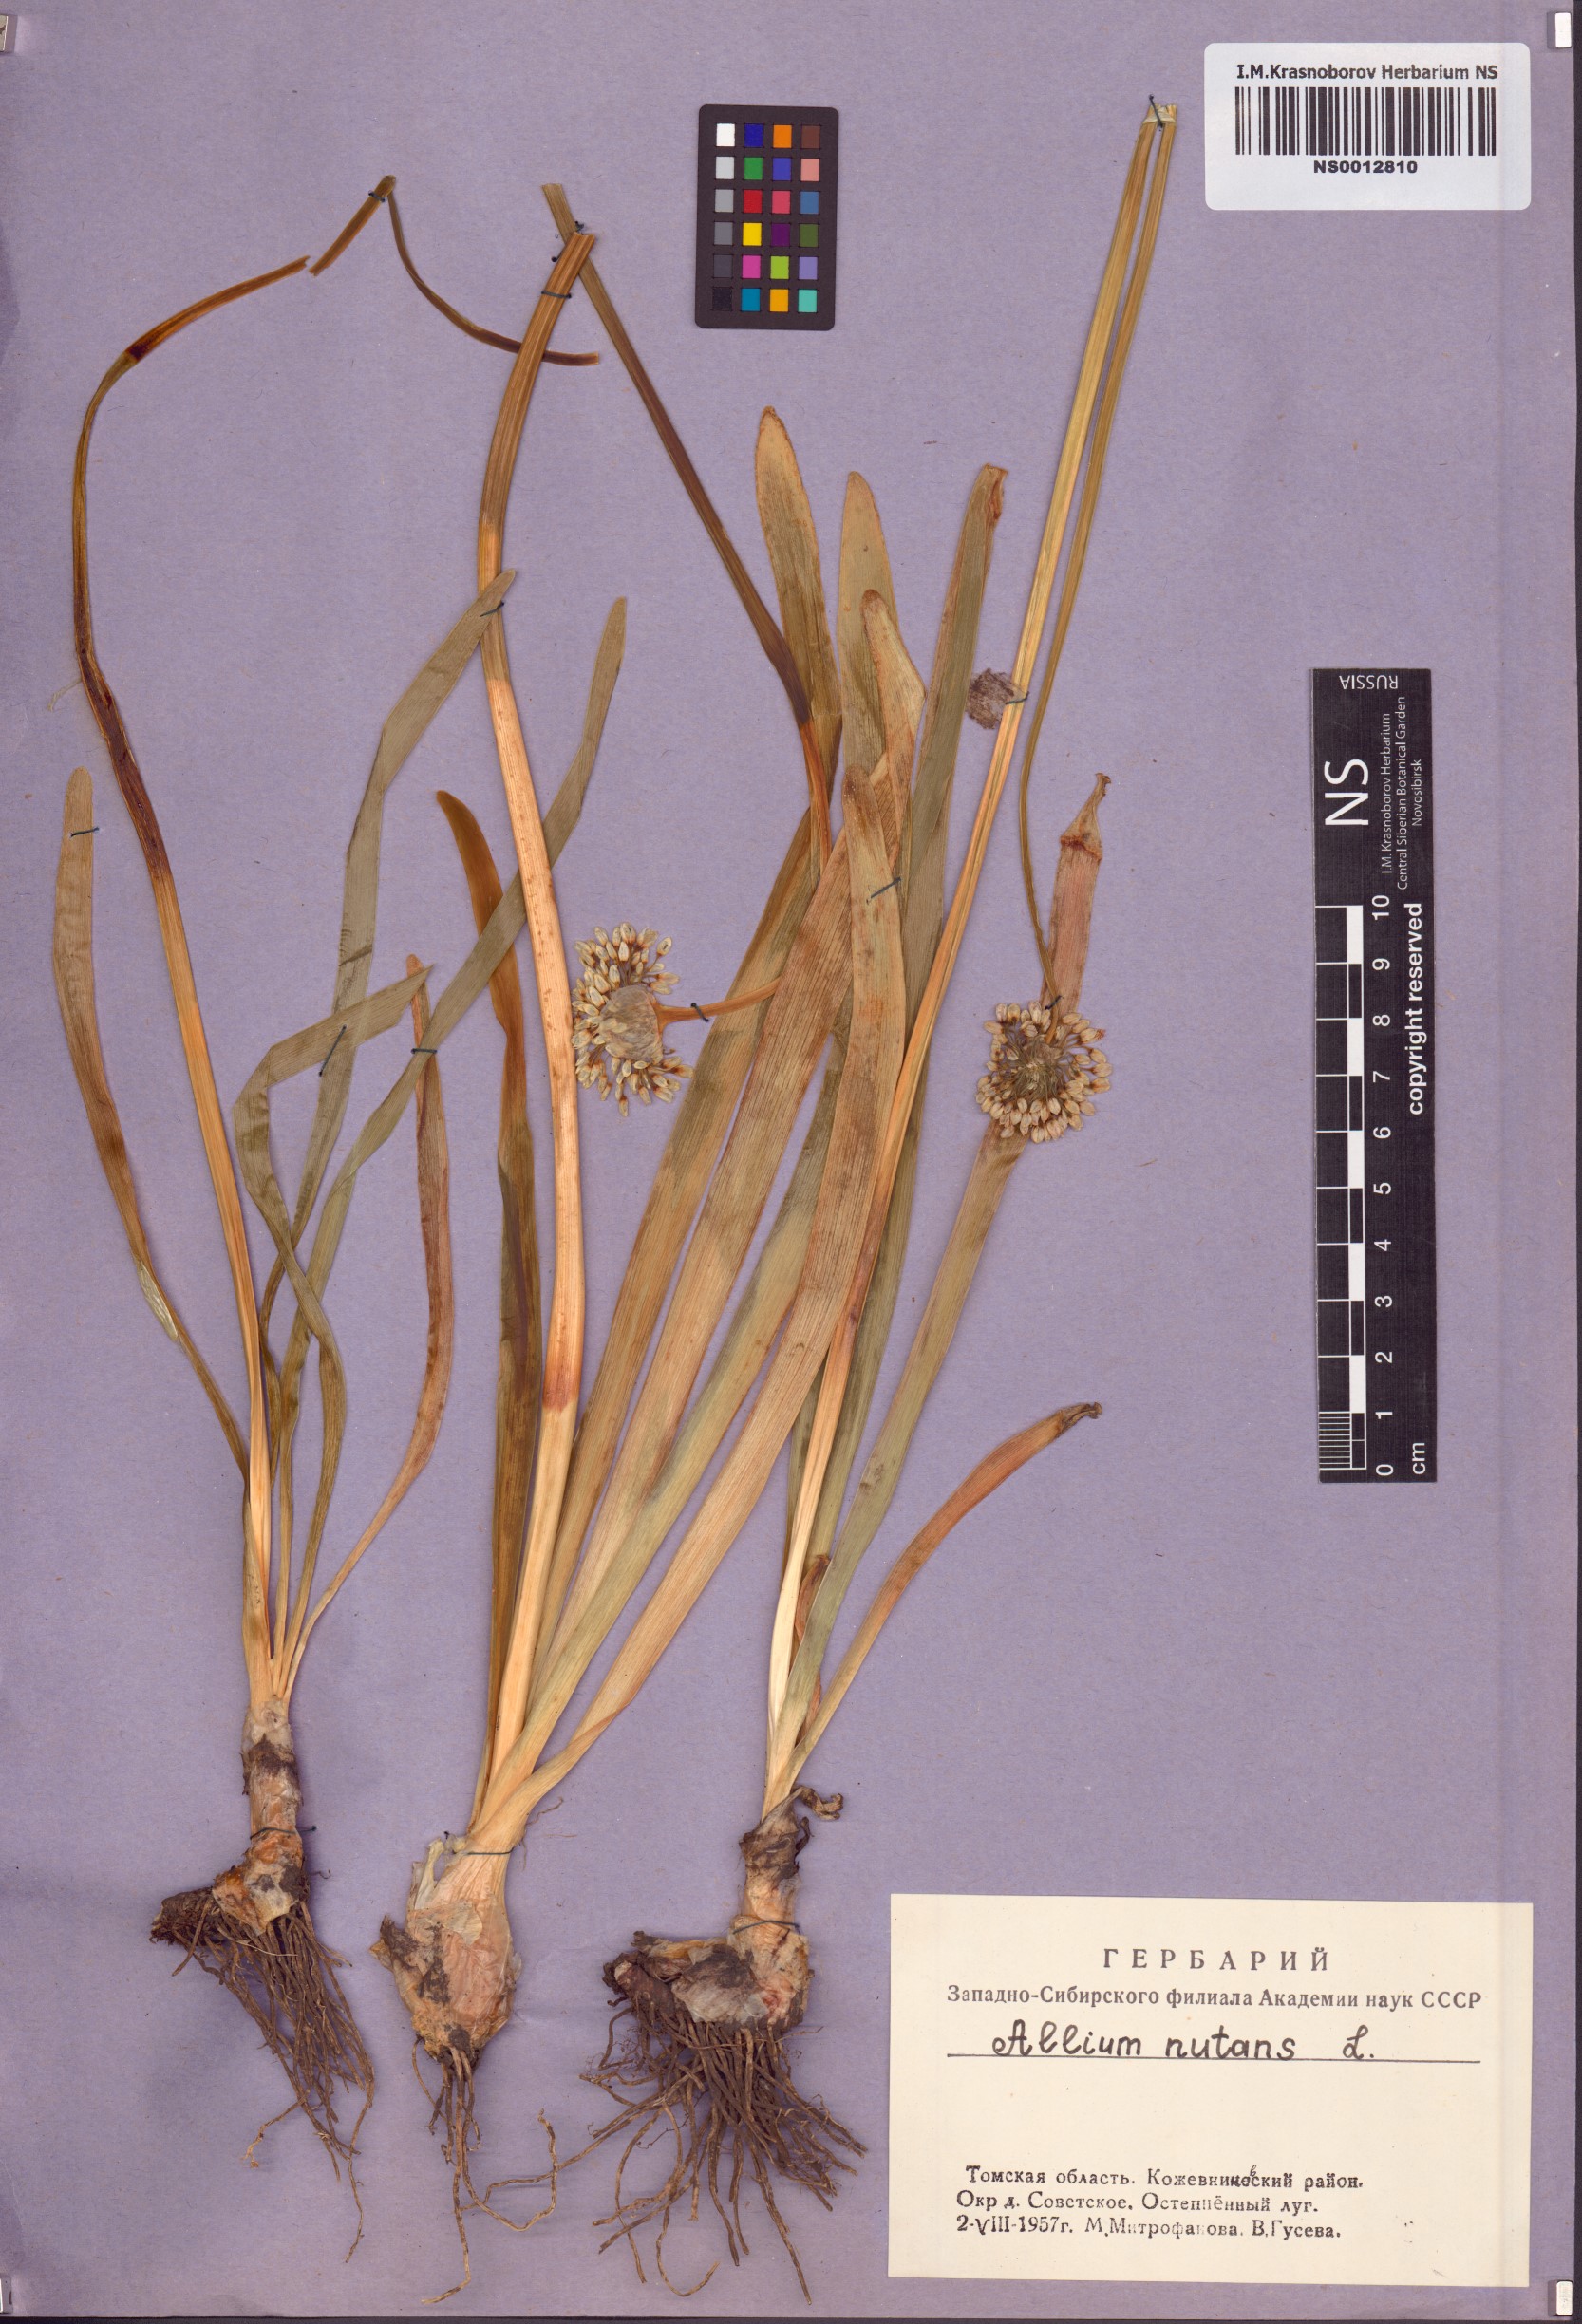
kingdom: Plantae
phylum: Tracheophyta
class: Liliopsida
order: Asparagales
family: Amaryllidaceae
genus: Allium
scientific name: Allium nutans
